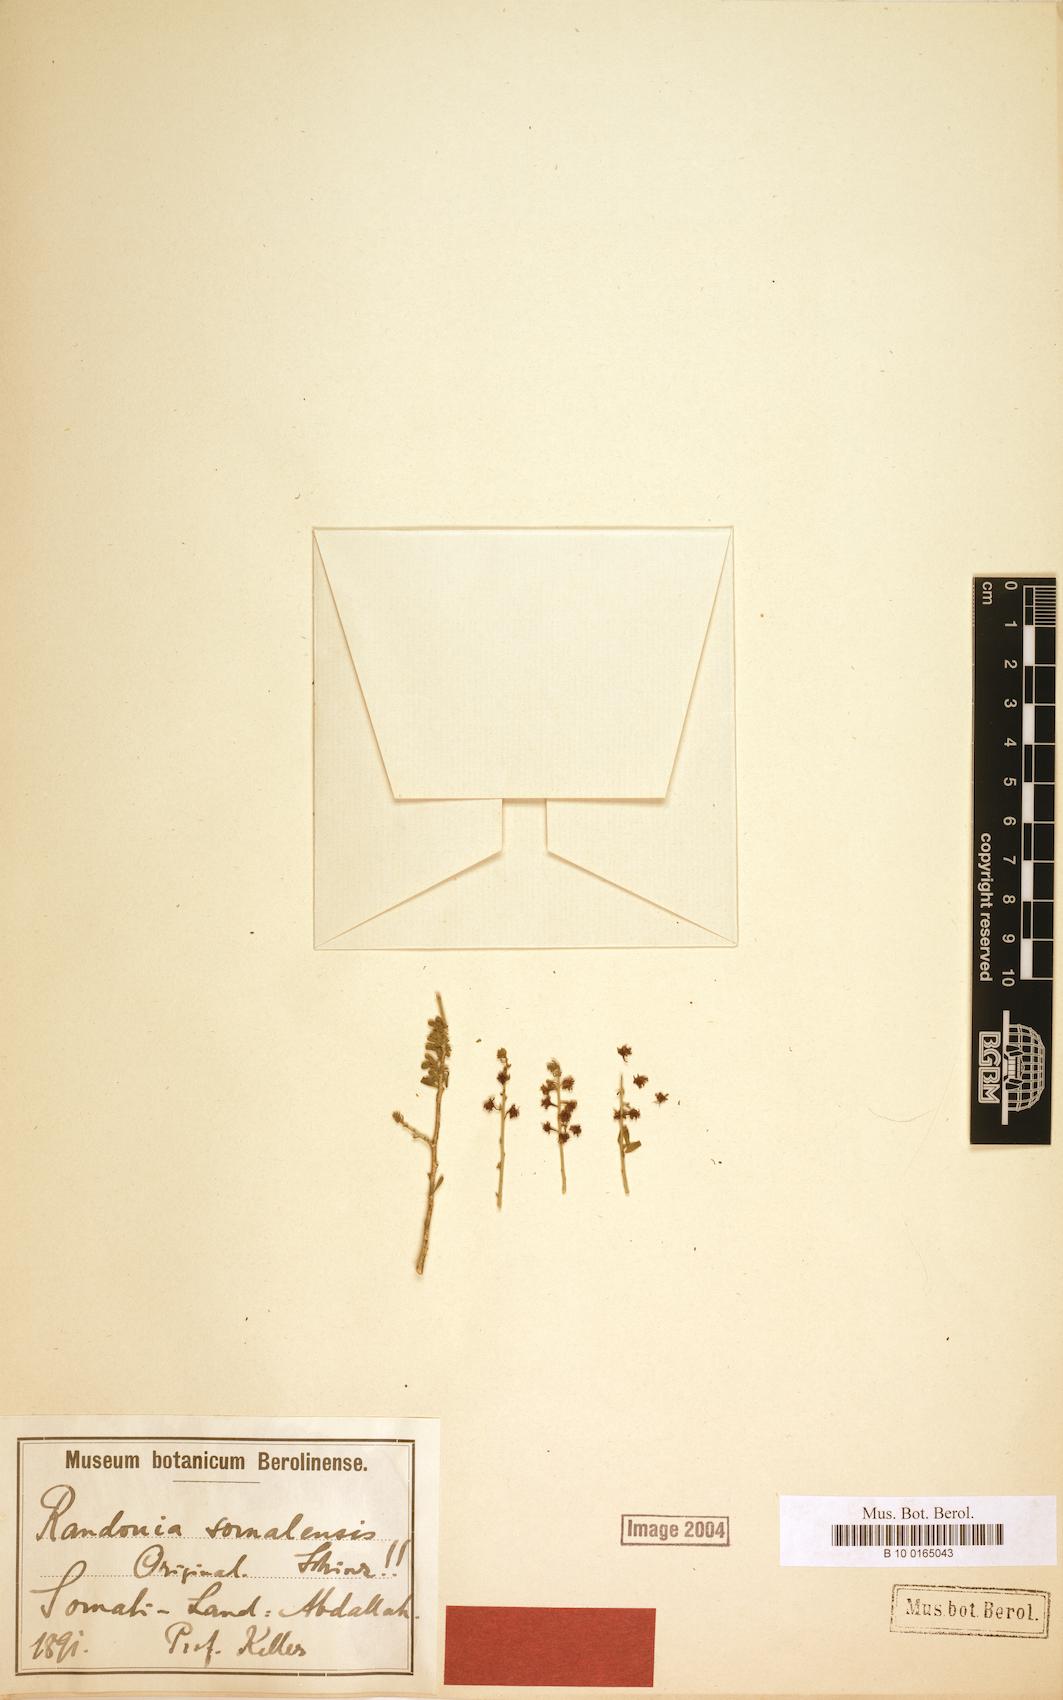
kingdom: Plantae
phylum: Tracheophyta
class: Magnoliopsida
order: Brassicales
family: Resedaceae
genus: Ochradenus
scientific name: Ochradenus somalensis
